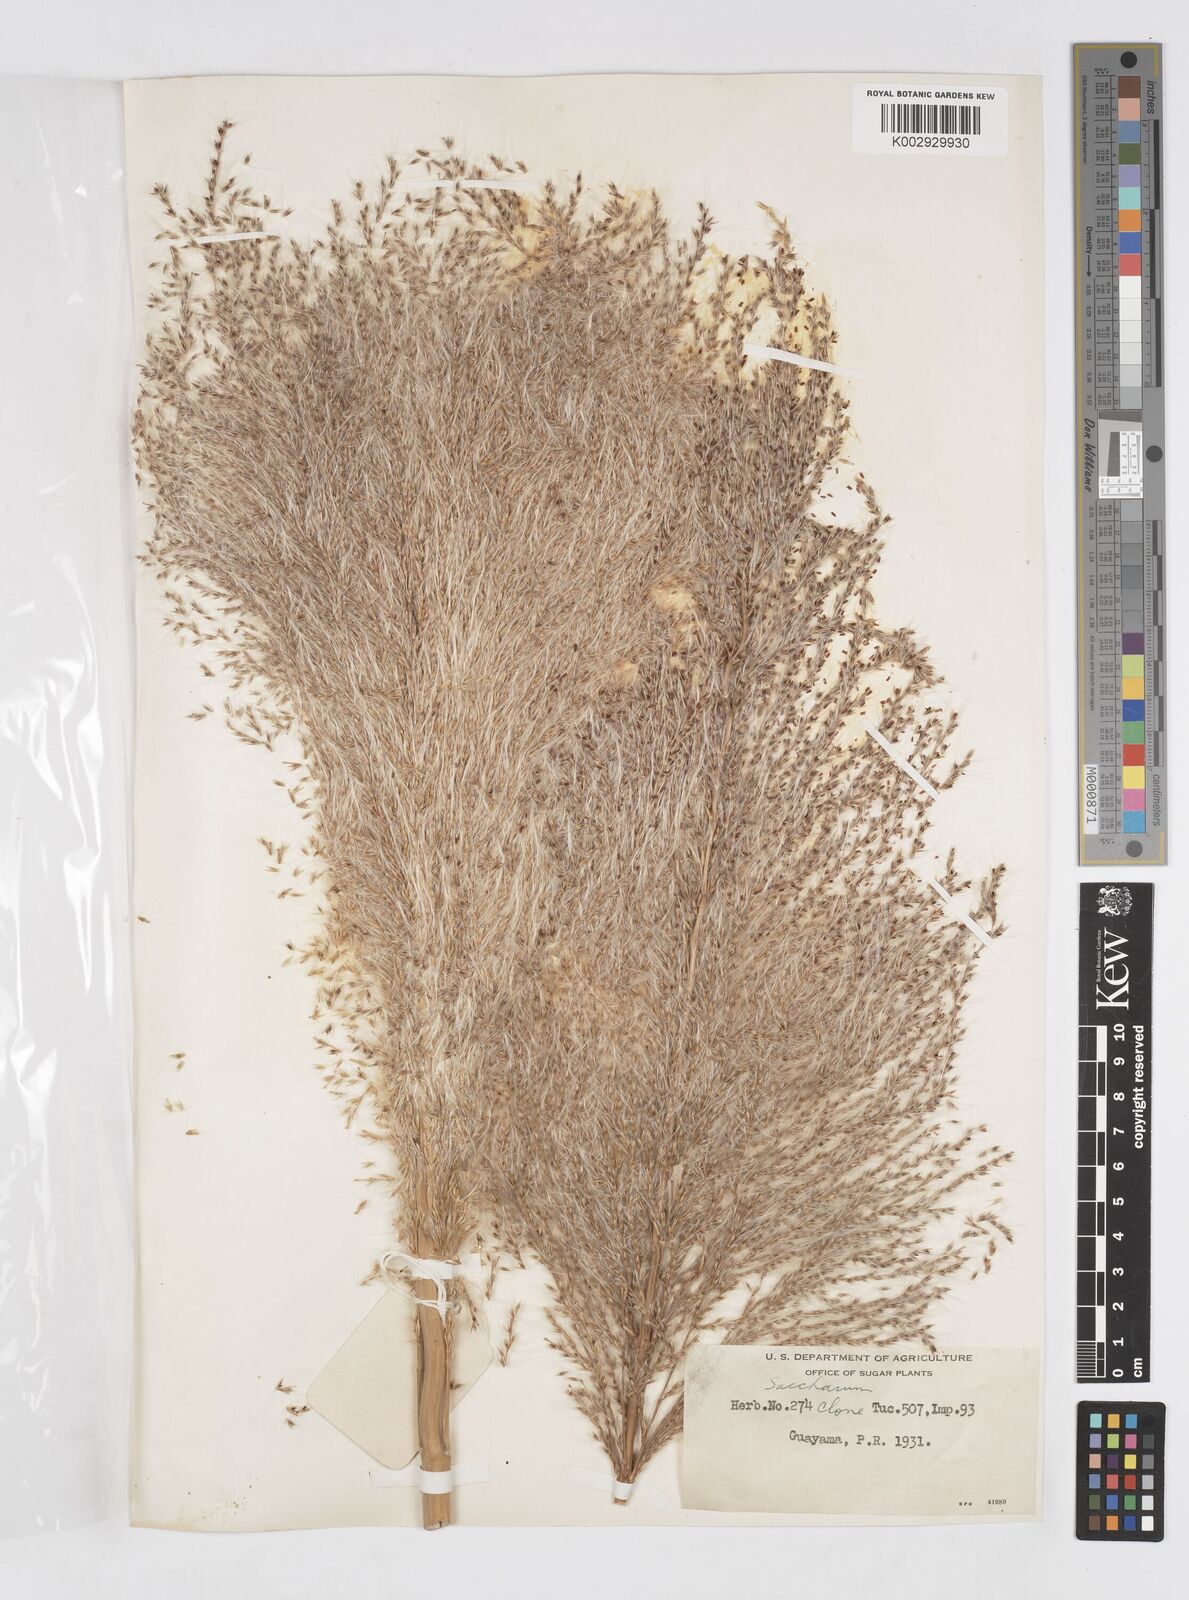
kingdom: Plantae
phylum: Tracheophyta
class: Liliopsida
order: Poales
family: Poaceae
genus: Saccharum
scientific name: Saccharum officinarum
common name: Sugarcane
